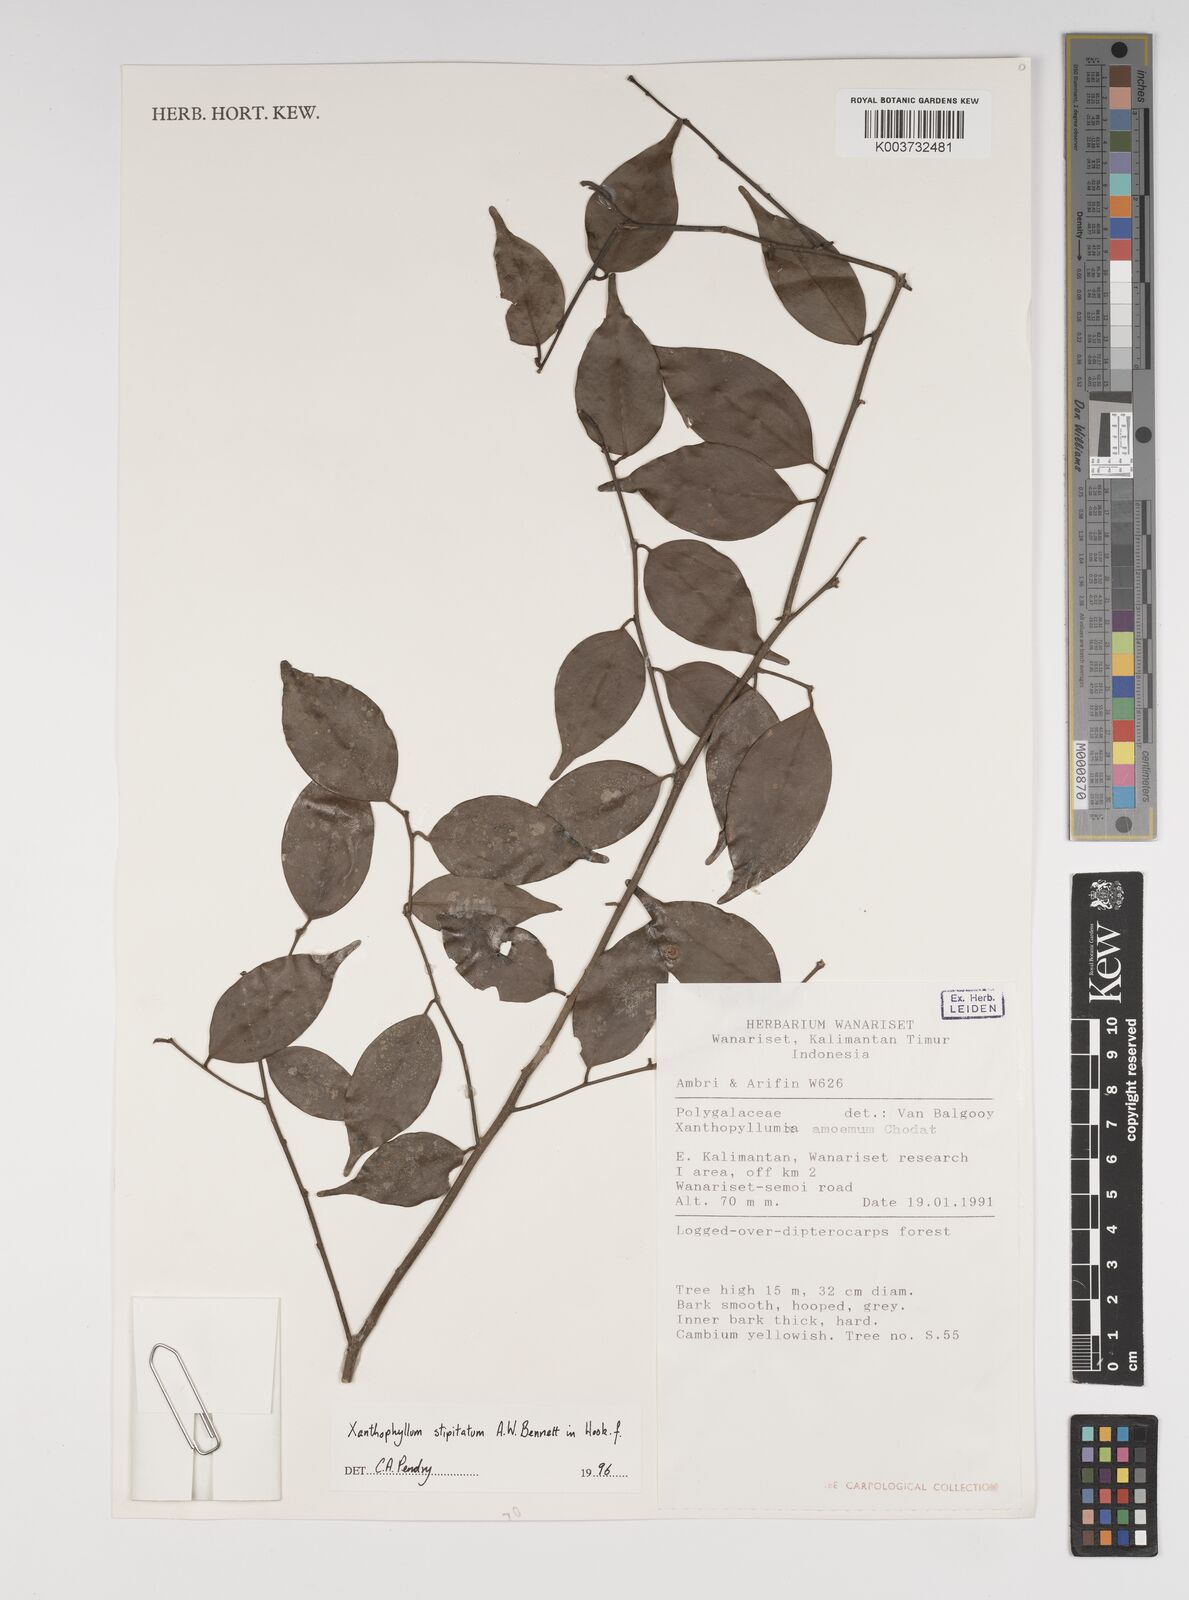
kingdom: Plantae
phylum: Tracheophyta
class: Magnoliopsida
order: Fabales
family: Polygalaceae
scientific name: Polygalaceae
